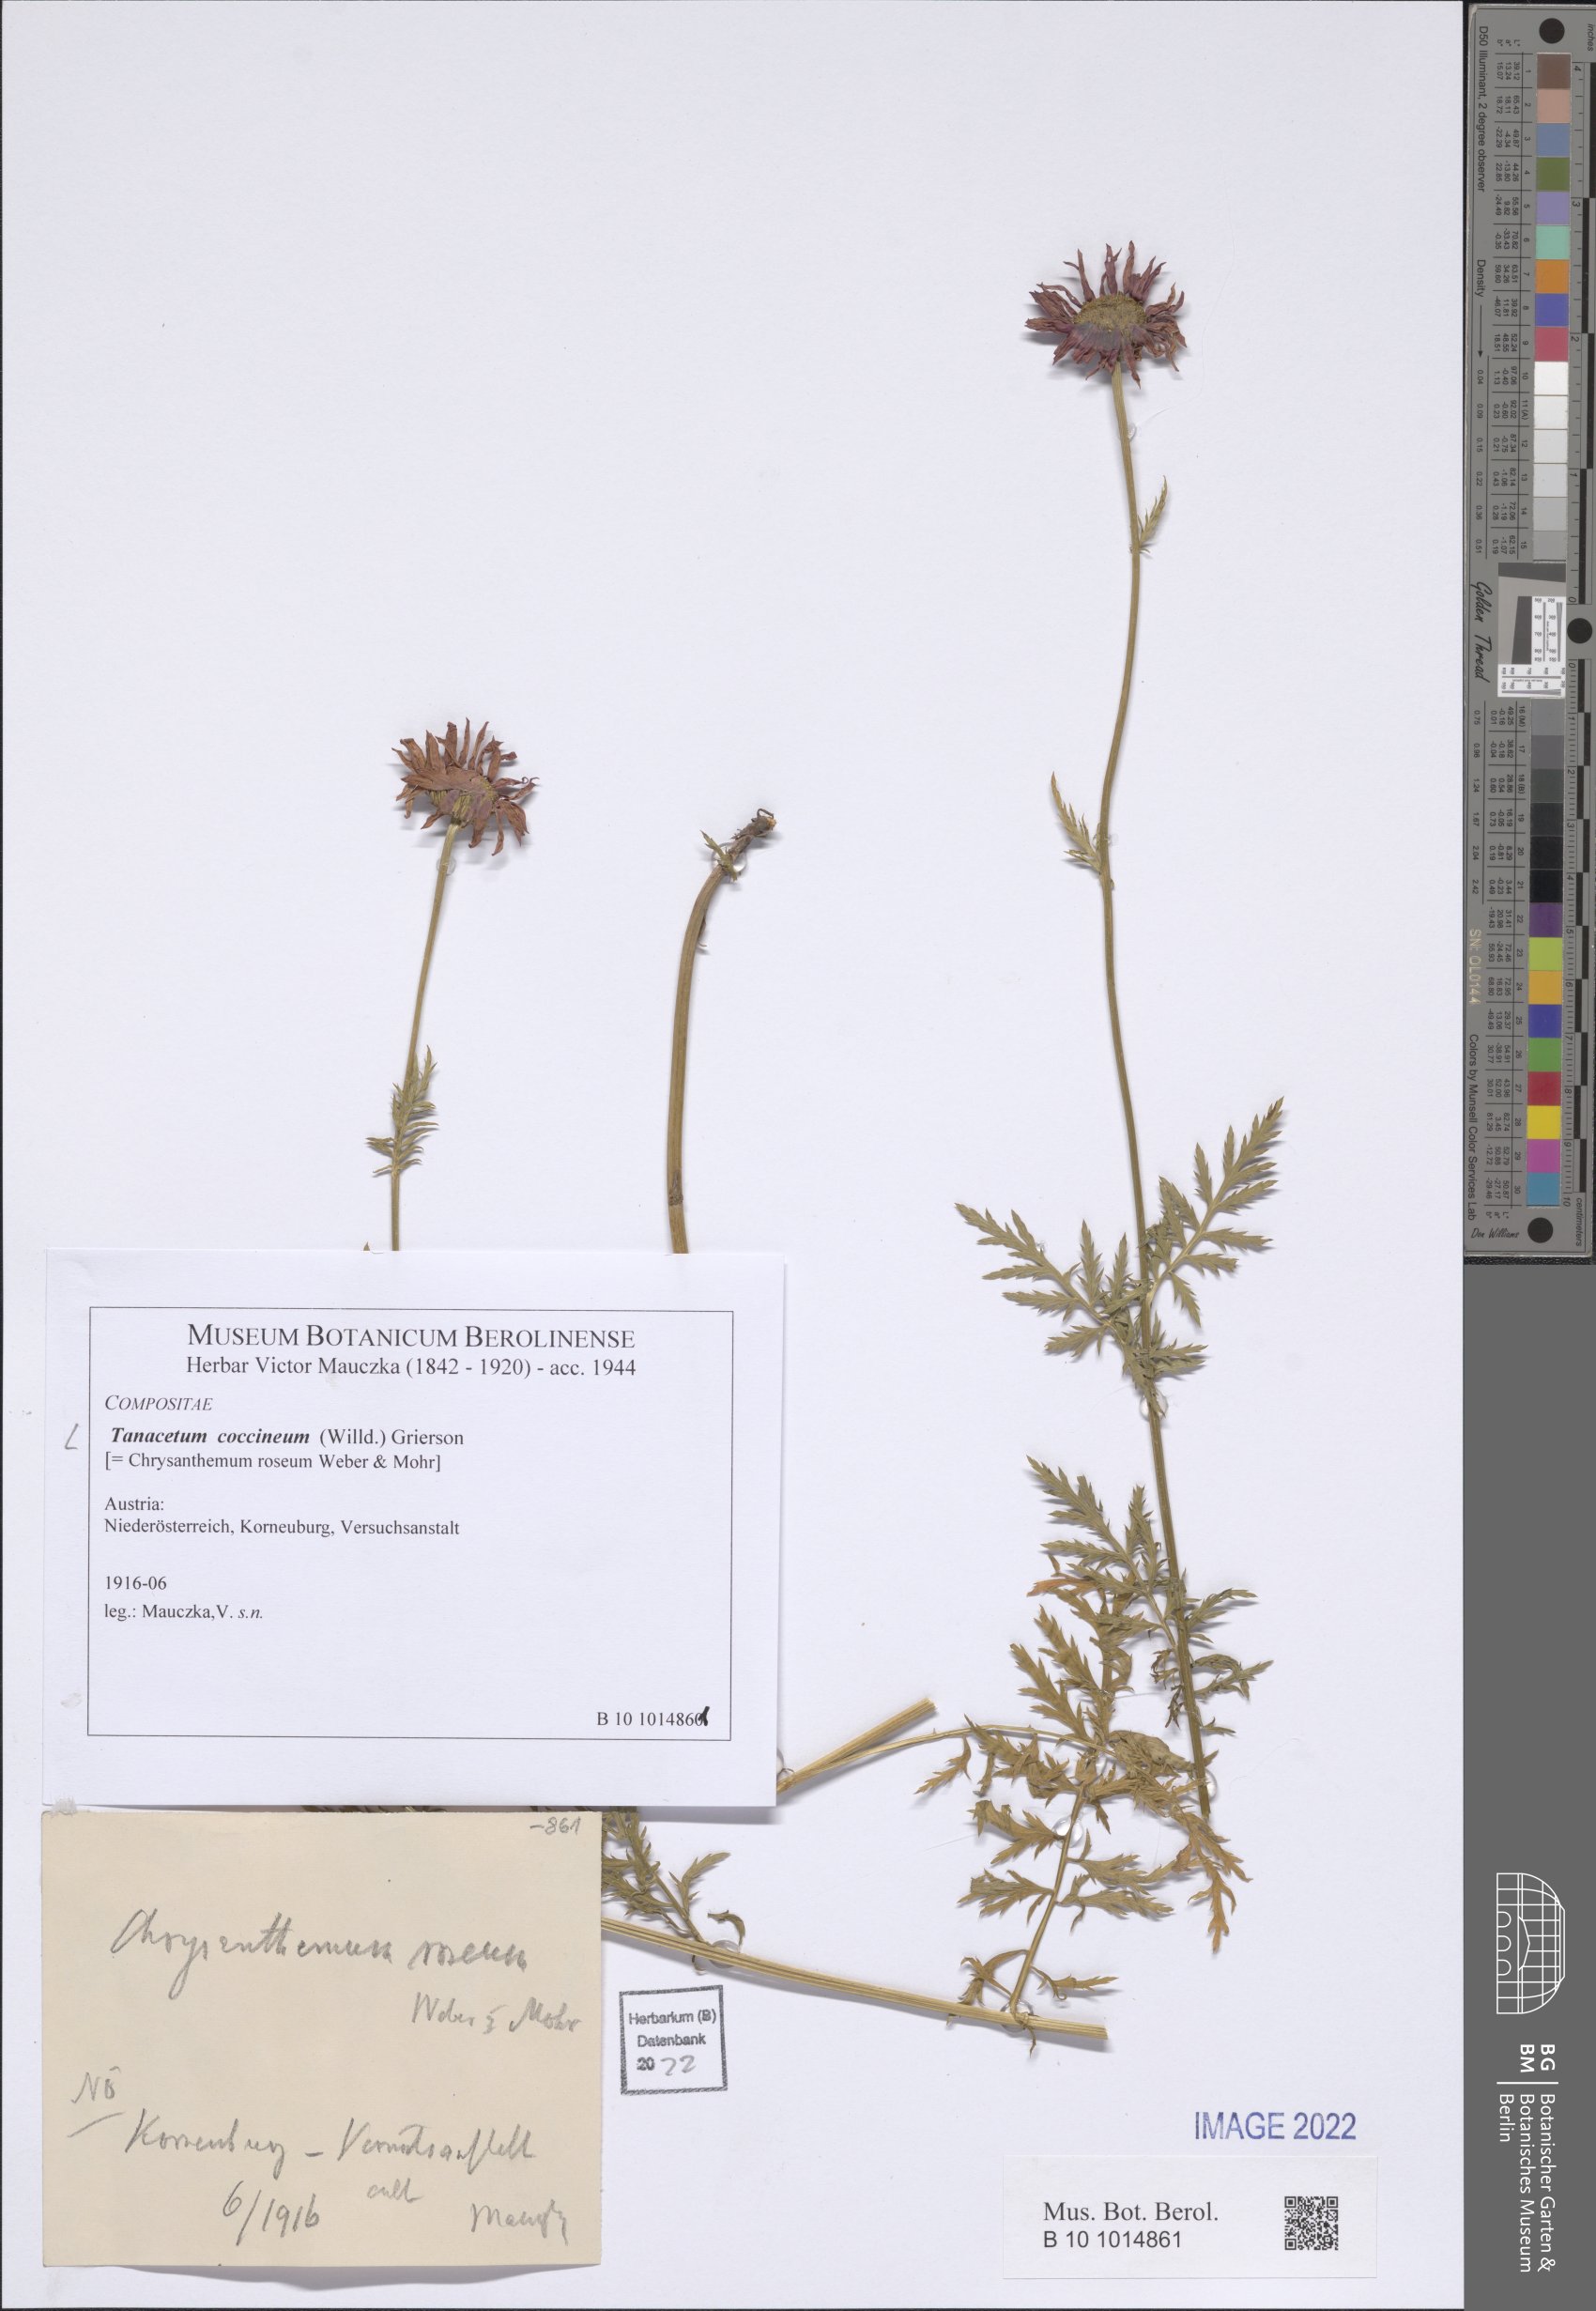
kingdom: Plantae
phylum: Tracheophyta
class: Magnoliopsida
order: Asterales
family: Asteraceae
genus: Tanacetum
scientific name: Tanacetum coccineum
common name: Pyrethum daisy
